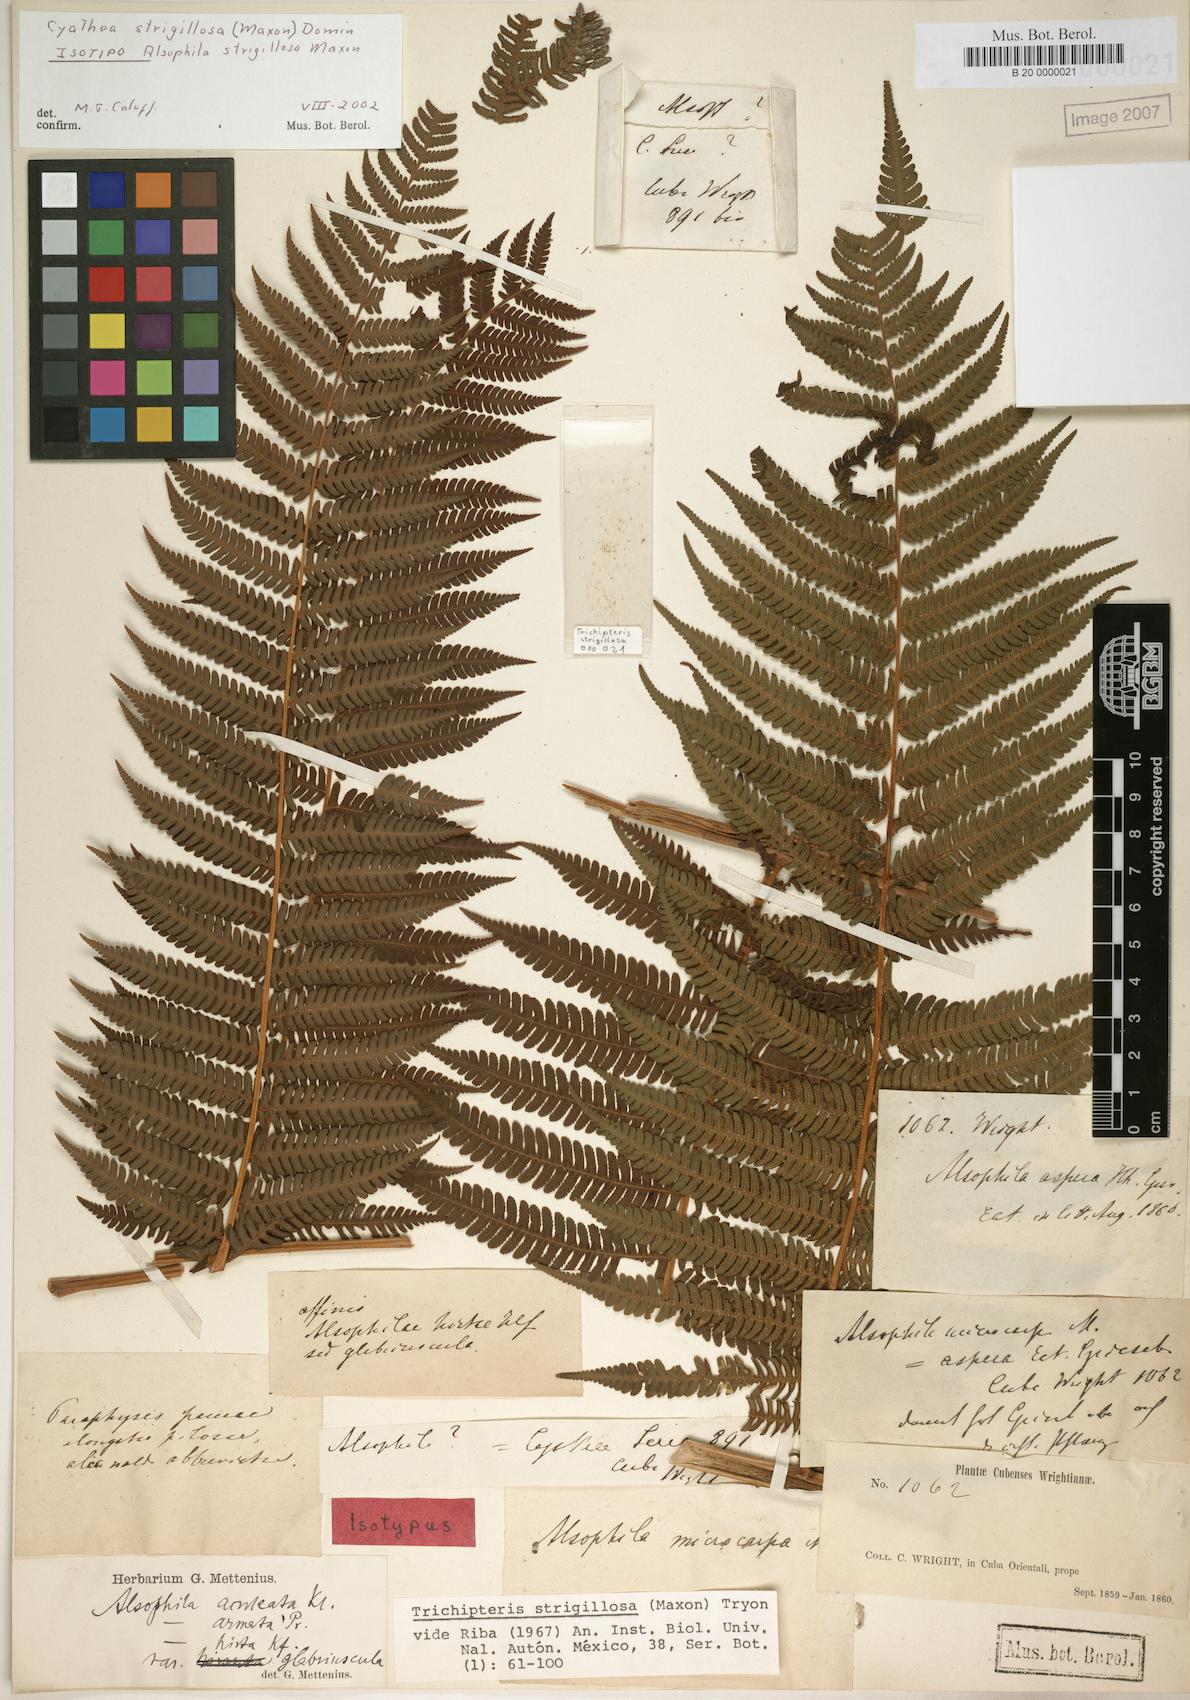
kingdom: Plantae
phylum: Tracheophyta
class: Polypodiopsida
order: Cyatheales
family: Cyatheaceae
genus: Cyathea
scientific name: Cyathea strigillosa
